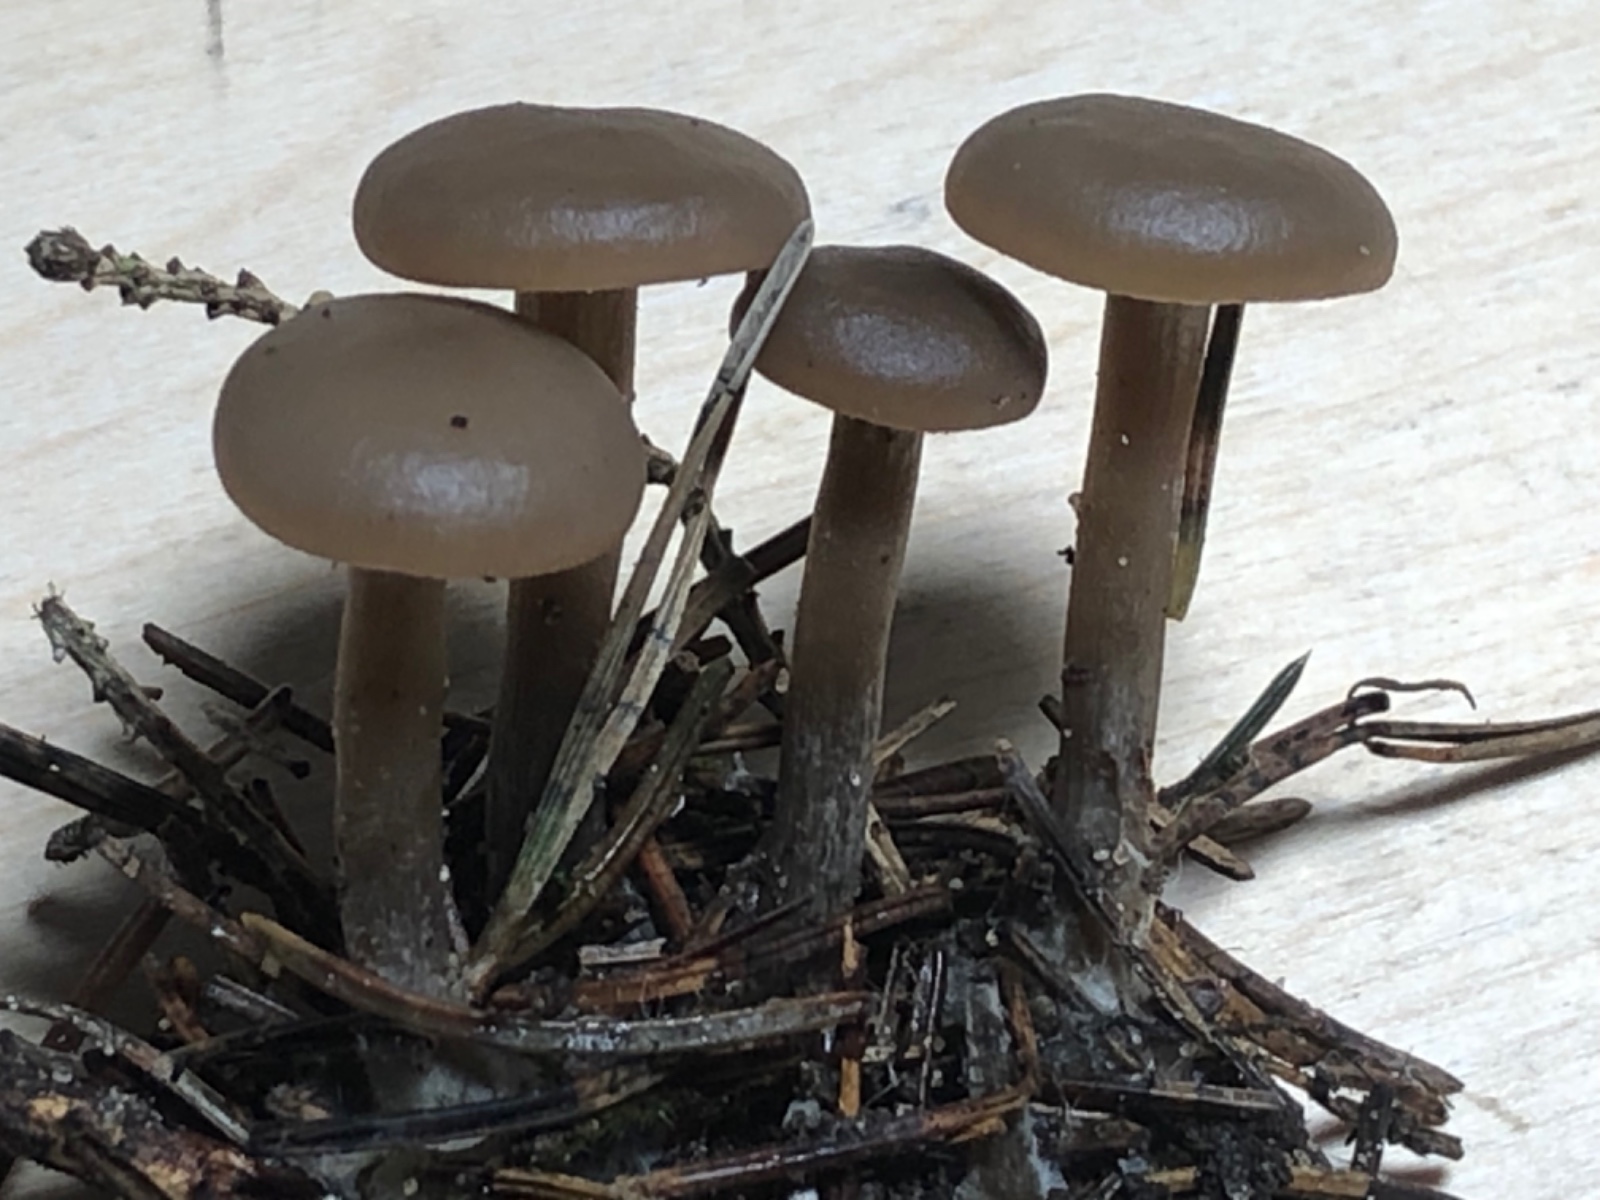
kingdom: Fungi
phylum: Basidiomycota
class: Agaricomycetes
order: Agaricales
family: Tricholomataceae
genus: Clitocybe
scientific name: Clitocybe
